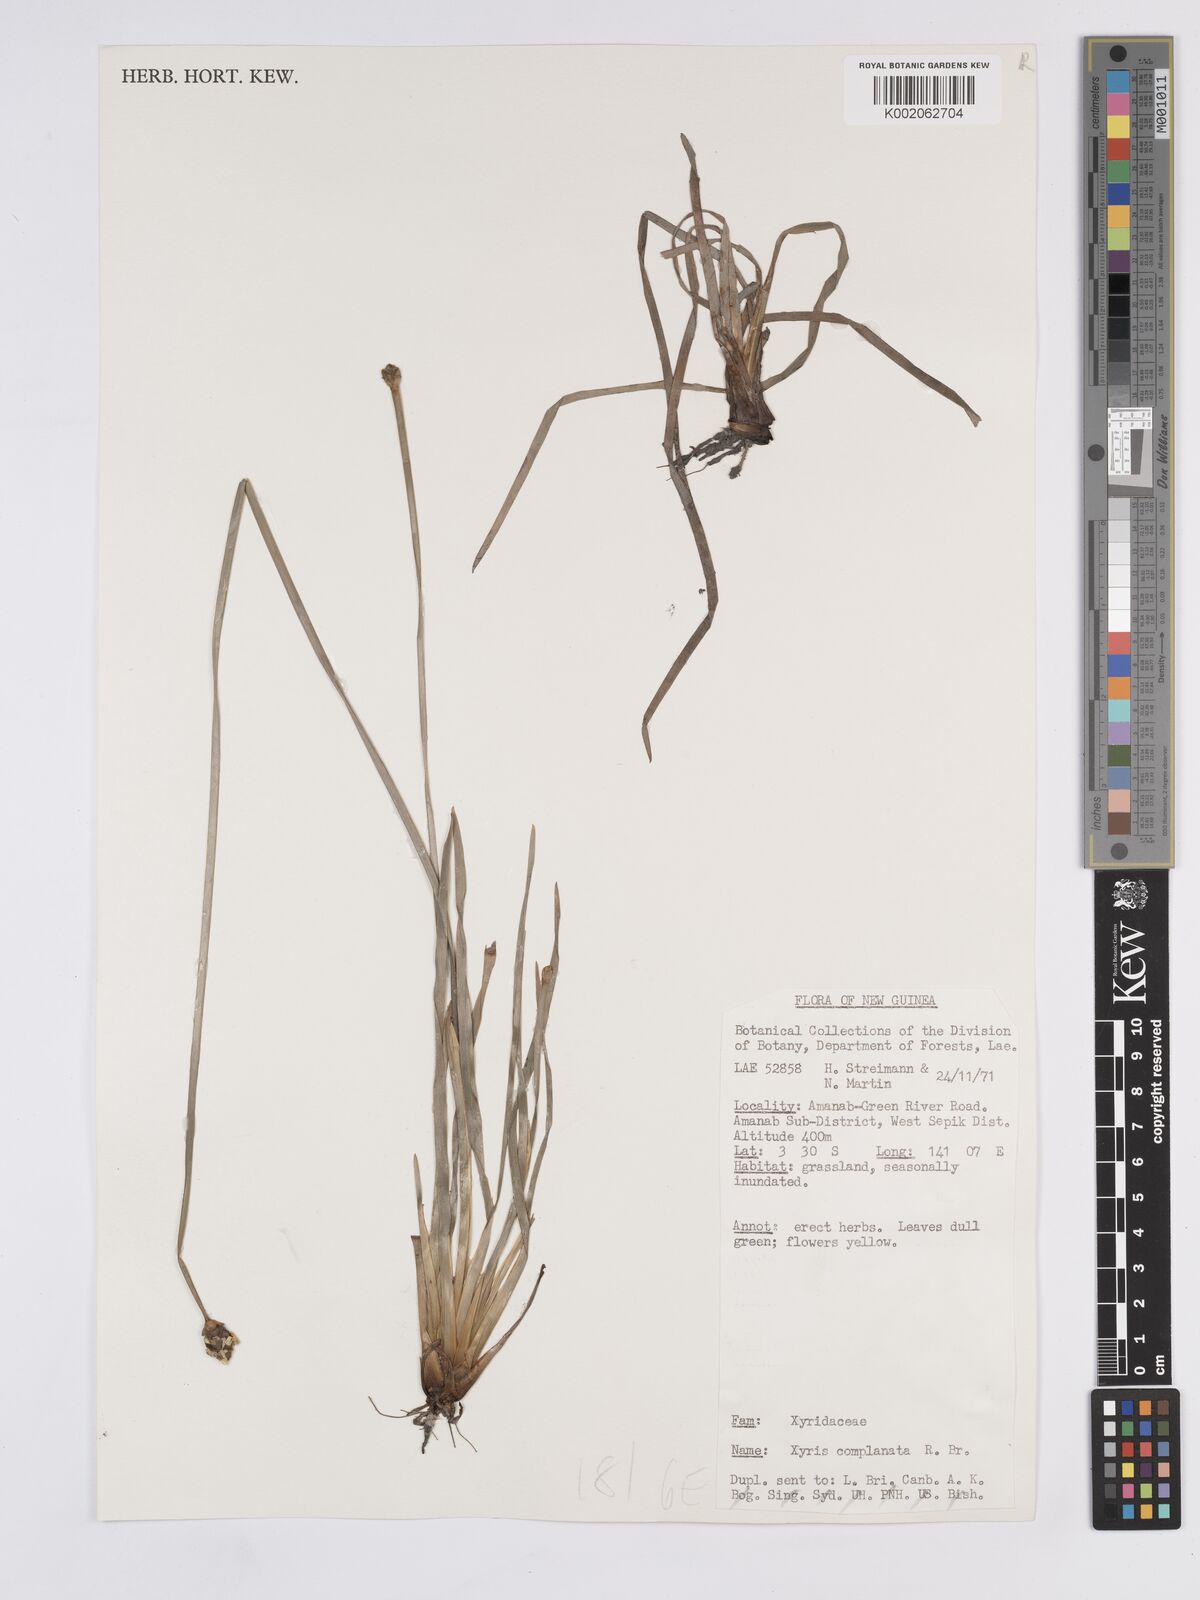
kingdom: Plantae
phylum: Tracheophyta
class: Liliopsida
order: Poales
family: Xyridaceae
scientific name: Xyridaceae
